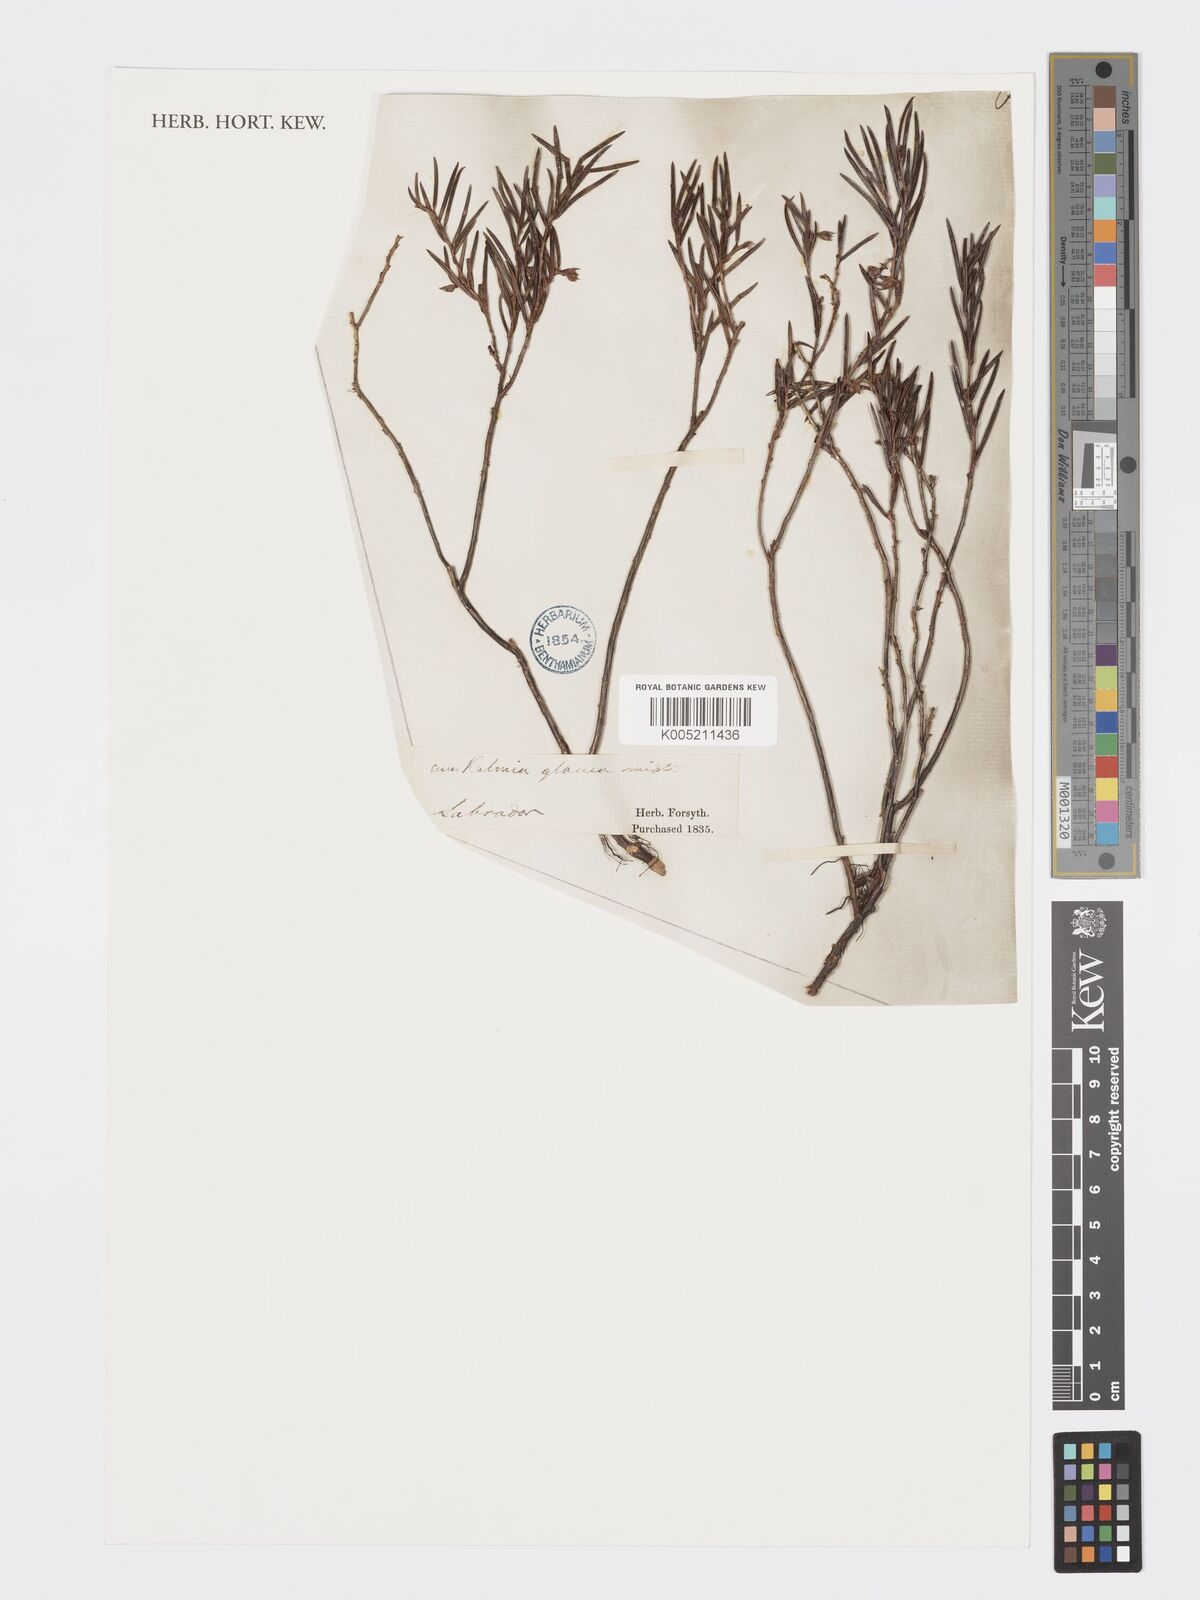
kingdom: Plantae
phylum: Tracheophyta
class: Magnoliopsida
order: Ericales
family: Ericaceae
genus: Kalmia
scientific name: Kalmia polifolia
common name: Bog-laurel
